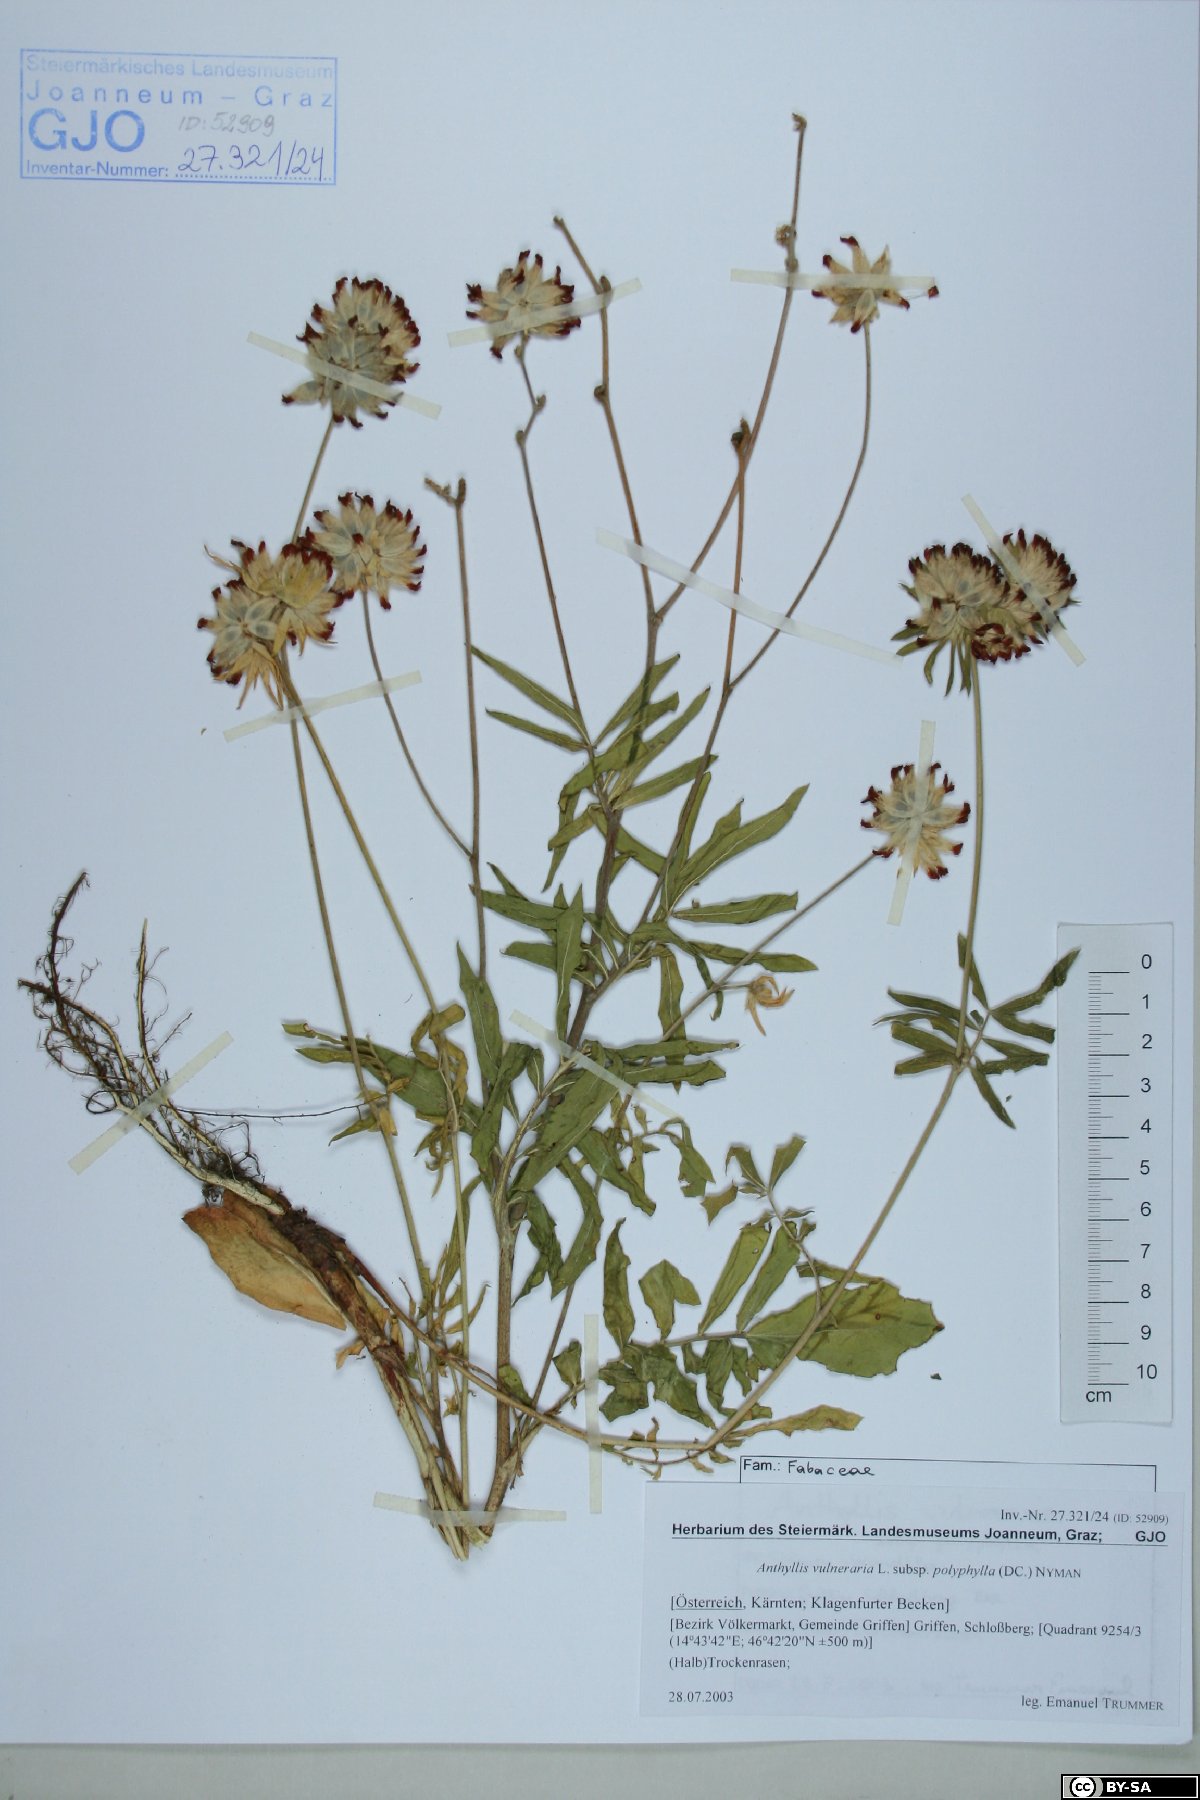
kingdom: Plantae
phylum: Tracheophyta
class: Magnoliopsida
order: Fabales
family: Fabaceae
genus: Anthyllis
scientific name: Anthyllis vulneraria
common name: Kidney vetch
